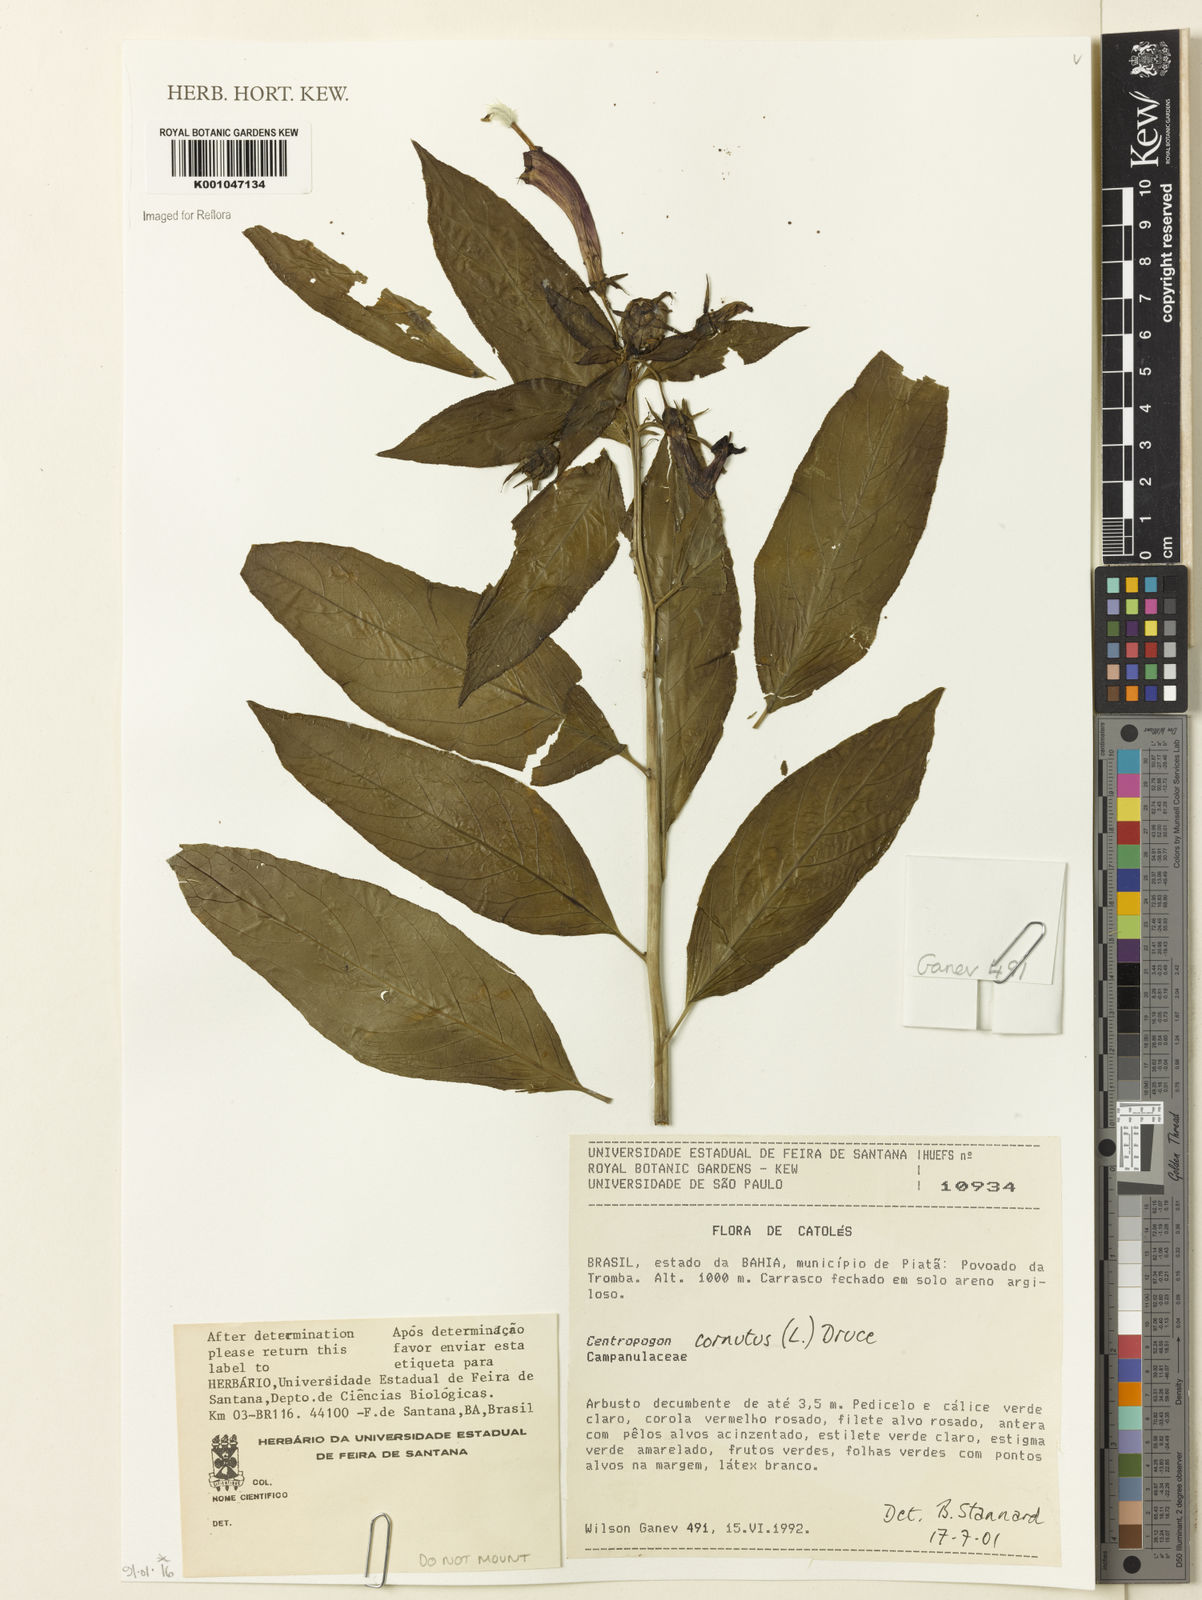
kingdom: Plantae
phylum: Tracheophyta
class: Magnoliopsida
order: Asterales
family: Campanulaceae
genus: Centropogon
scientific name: Centropogon cornutus
